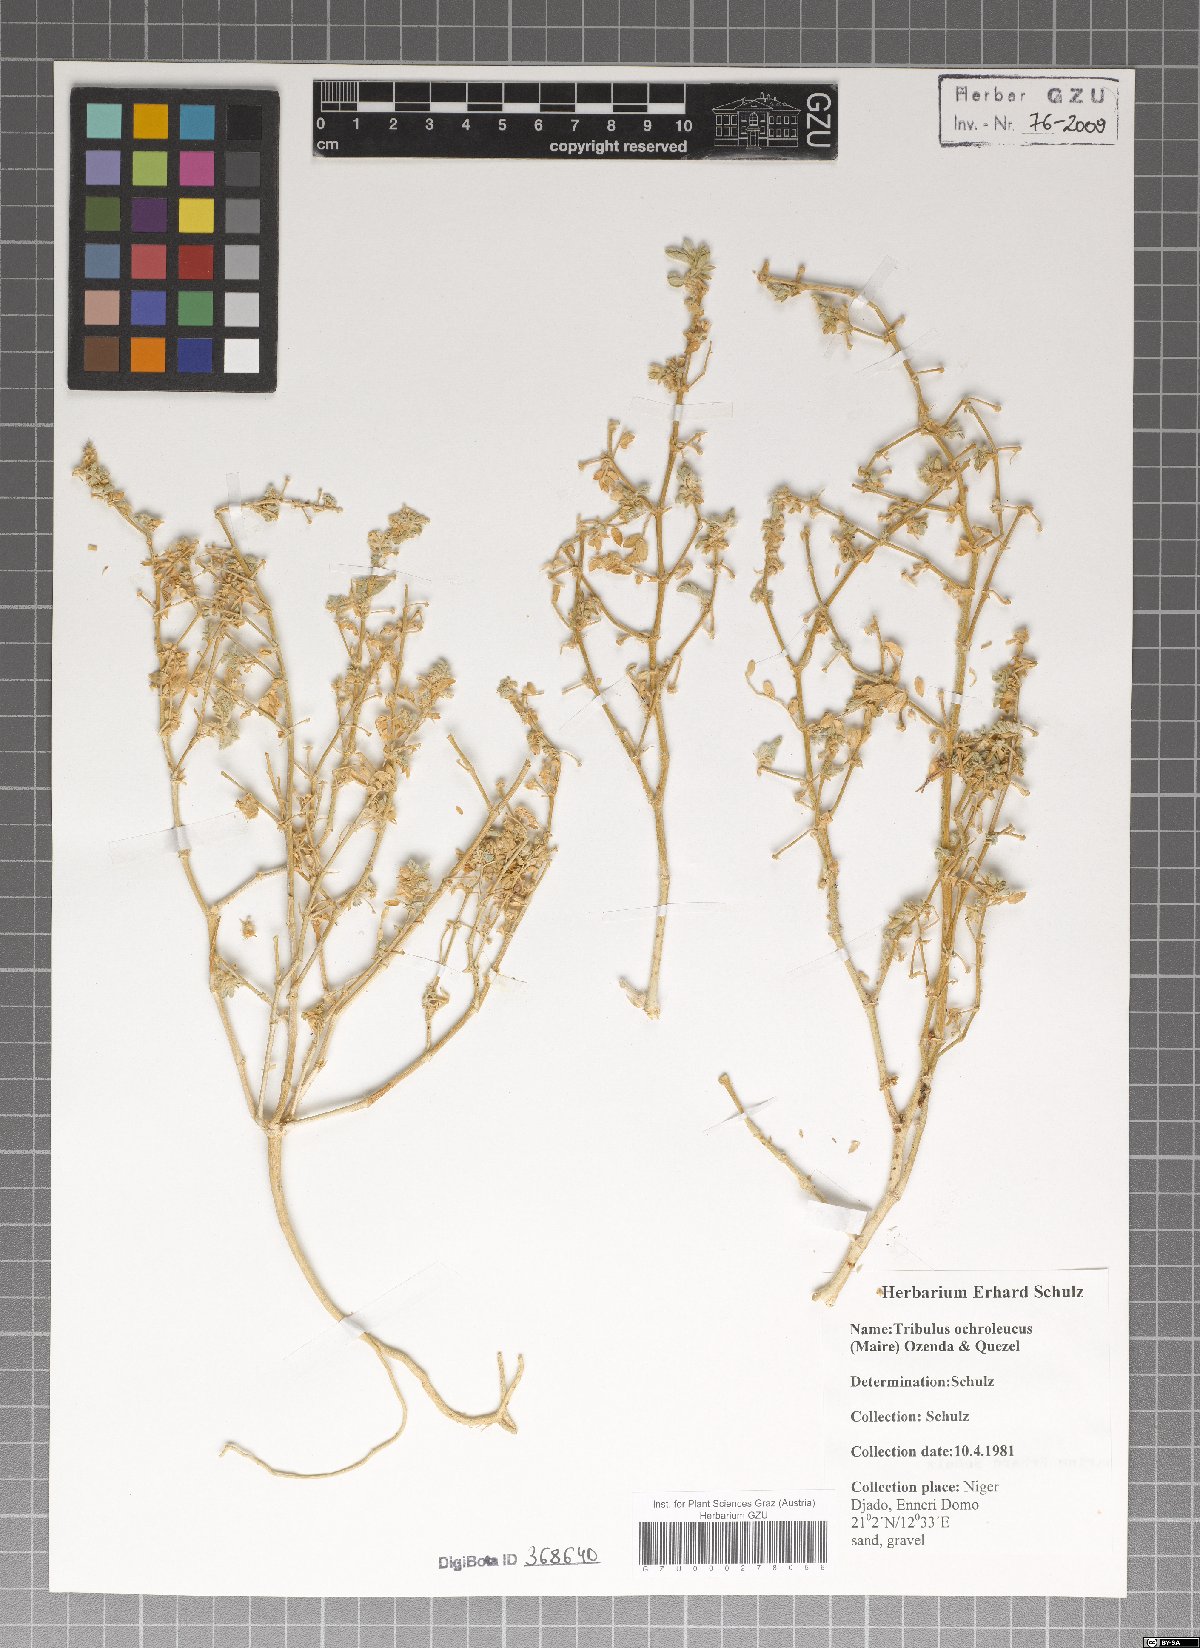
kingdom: Plantae
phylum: Tracheophyta
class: Magnoliopsida
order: Zygophyllales
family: Zygophyllaceae
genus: Tribulus
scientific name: Tribulus ochroleucus
